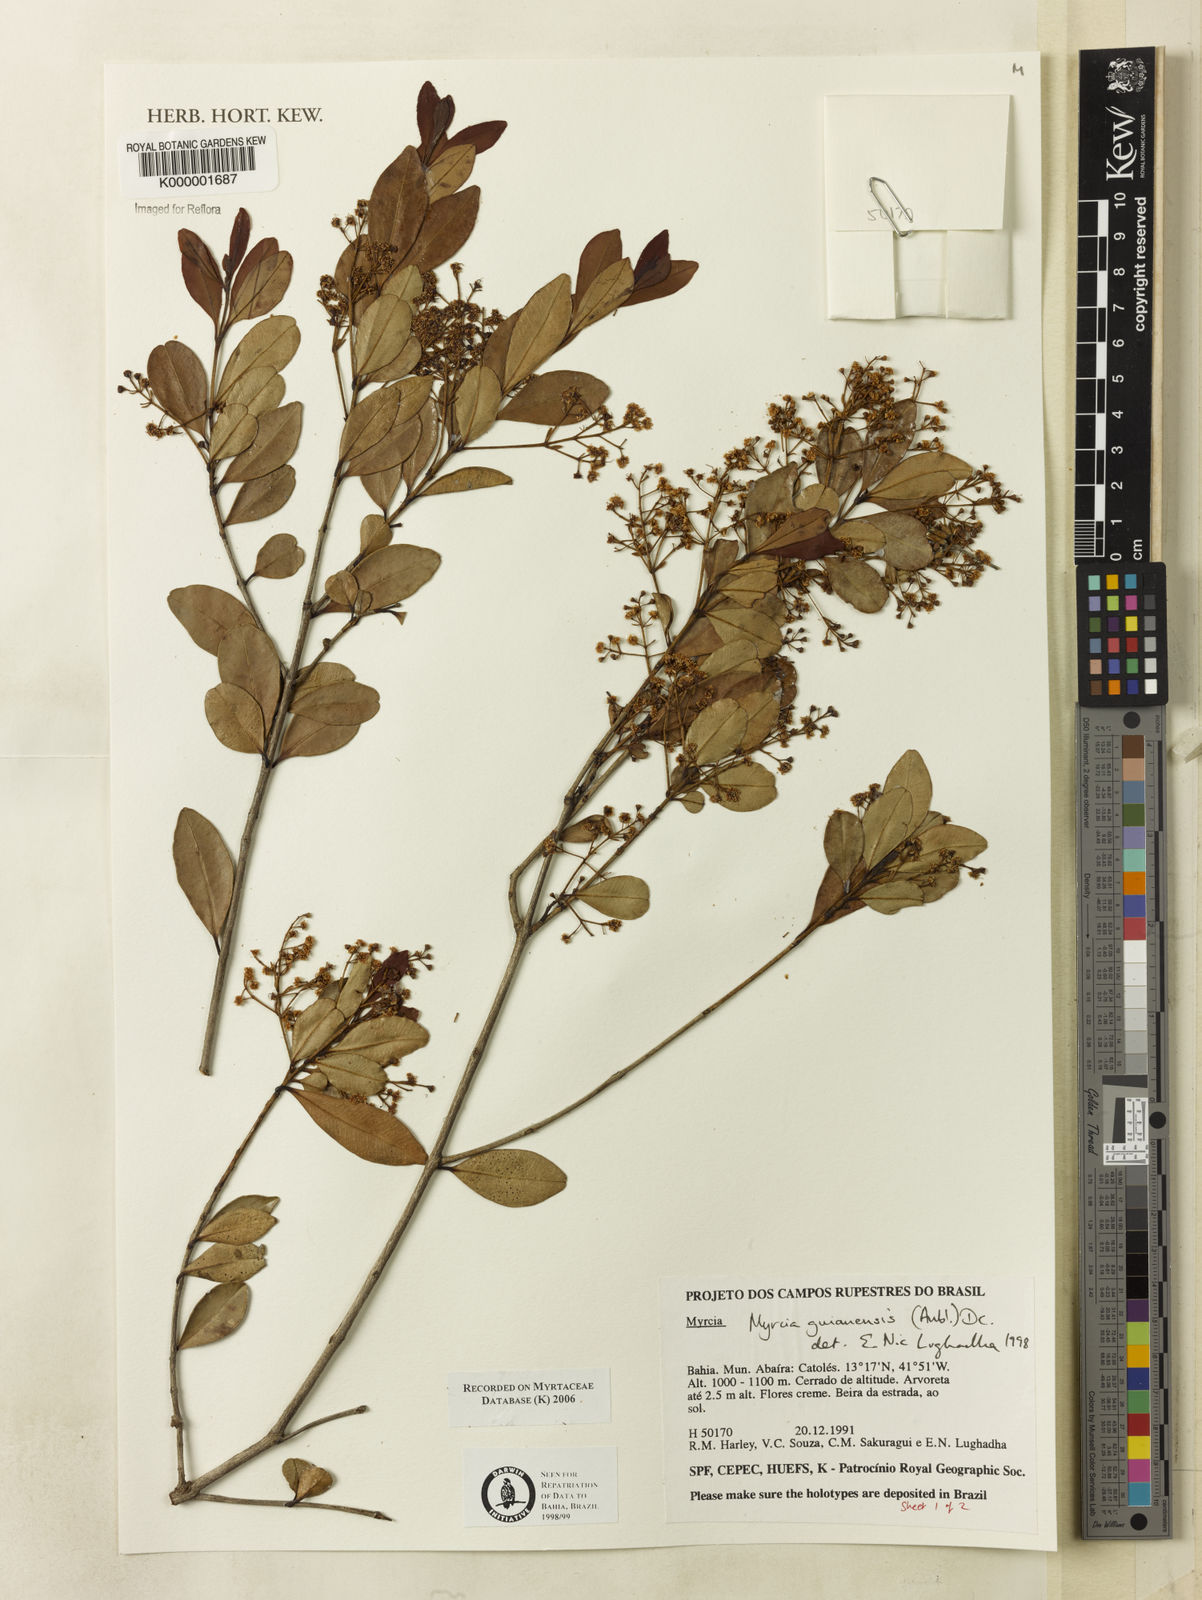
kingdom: Plantae
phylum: Tracheophyta
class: Magnoliopsida
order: Myrtales
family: Myrtaceae
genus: Myrcia
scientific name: Myrcia guianensis
